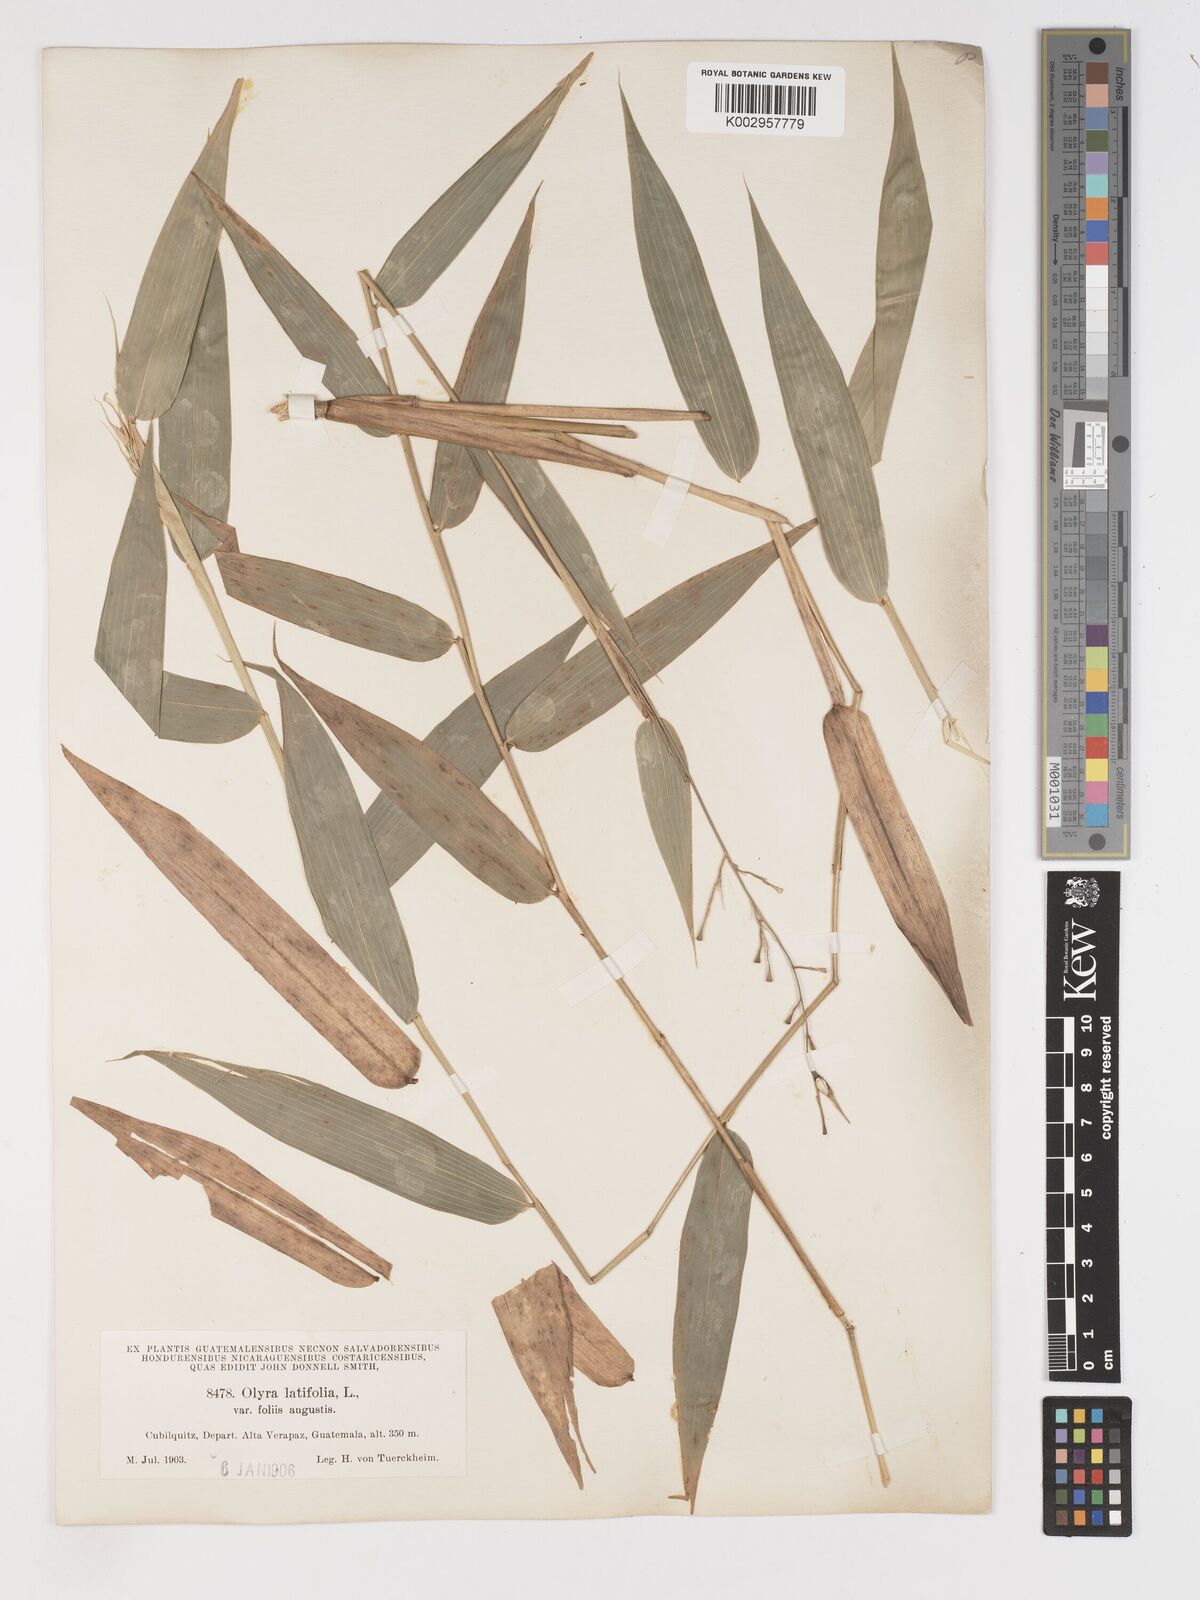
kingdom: Plantae
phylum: Tracheophyta
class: Liliopsida
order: Poales
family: Poaceae
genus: Olyra
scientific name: Olyra latifolia
